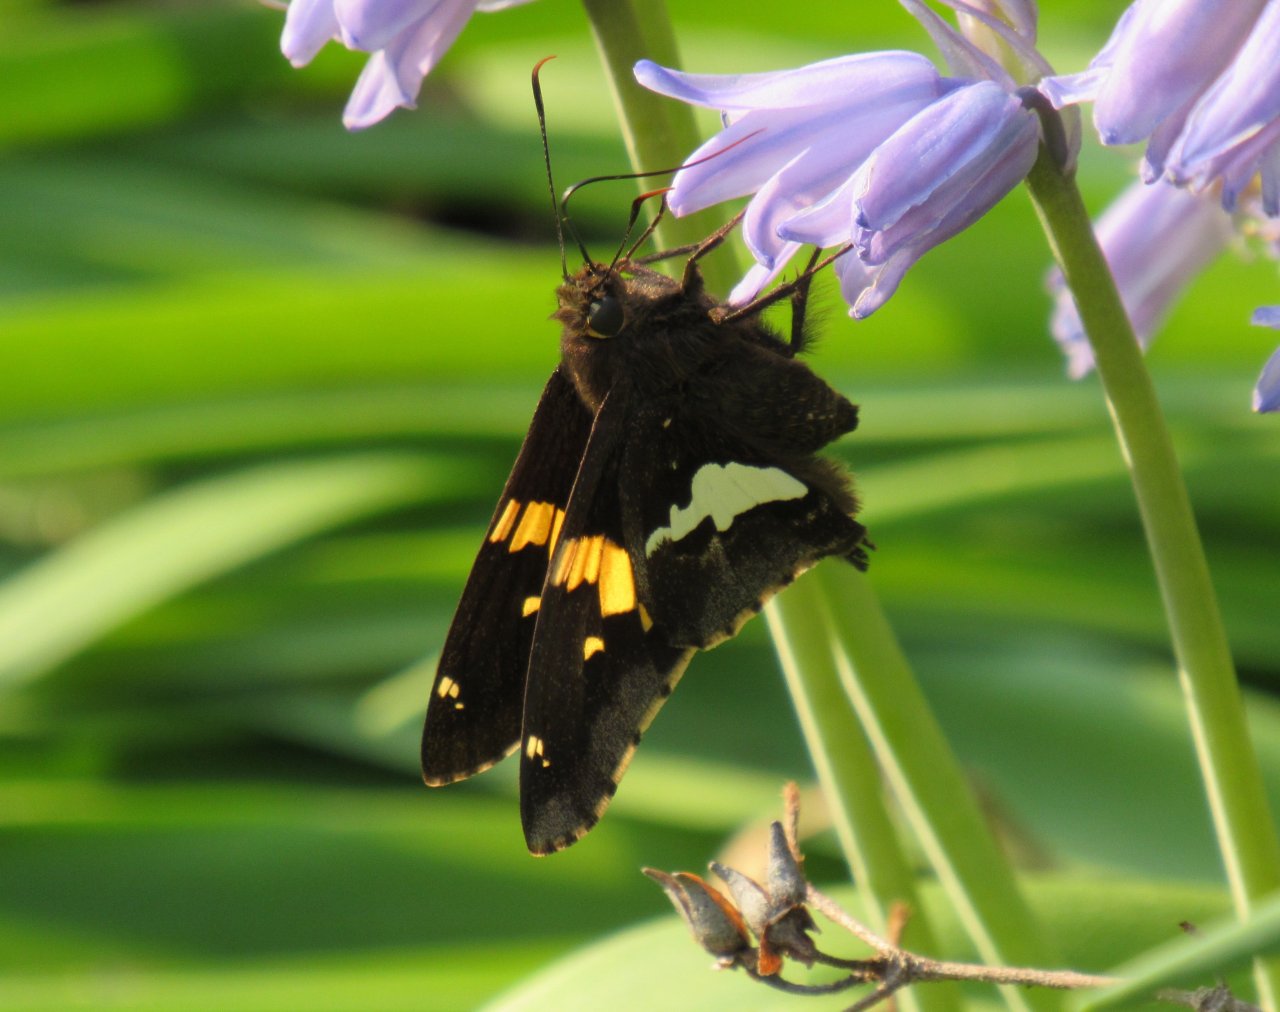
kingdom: Animalia
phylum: Arthropoda
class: Insecta
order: Lepidoptera
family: Hesperiidae
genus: Epargyreus
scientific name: Epargyreus clarus
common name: Silver-spotted Skipper
